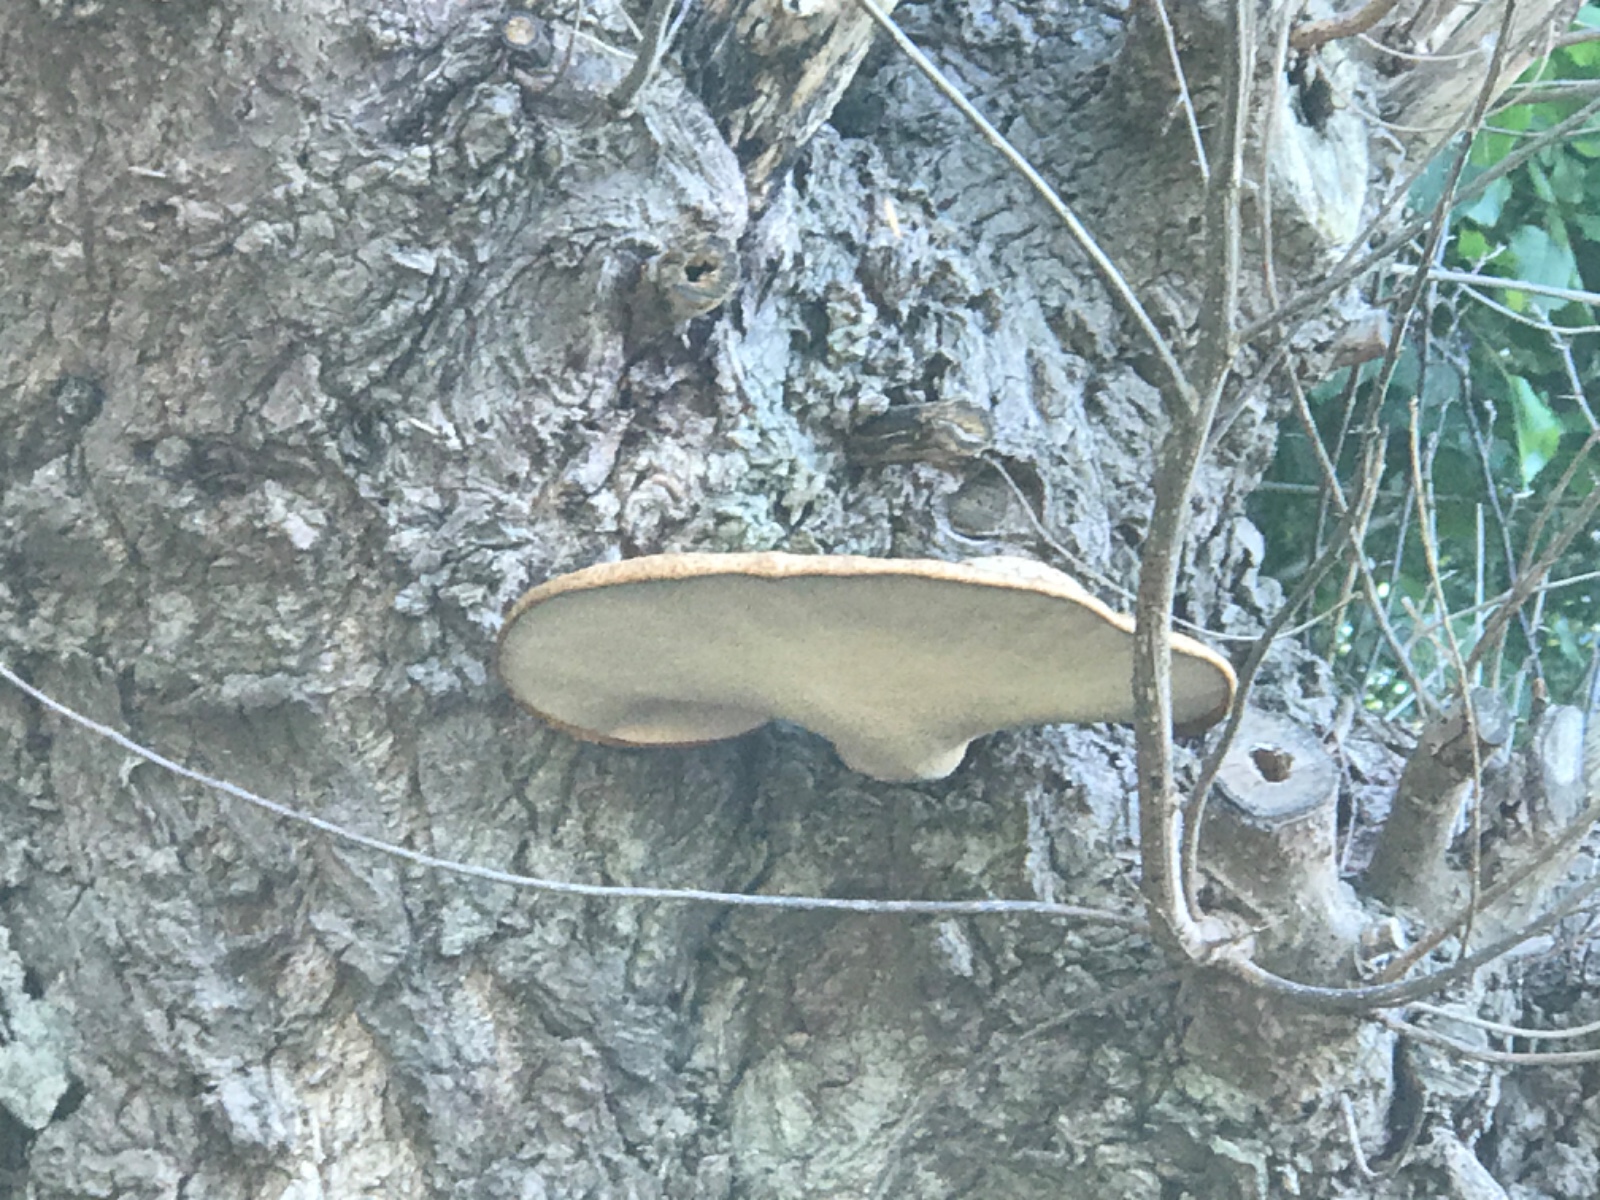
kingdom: Fungi
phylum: Basidiomycota
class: Agaricomycetes
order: Polyporales
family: Polyporaceae
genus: Cerioporus
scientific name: Cerioporus squamosus
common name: skællet stilkporesvamp
